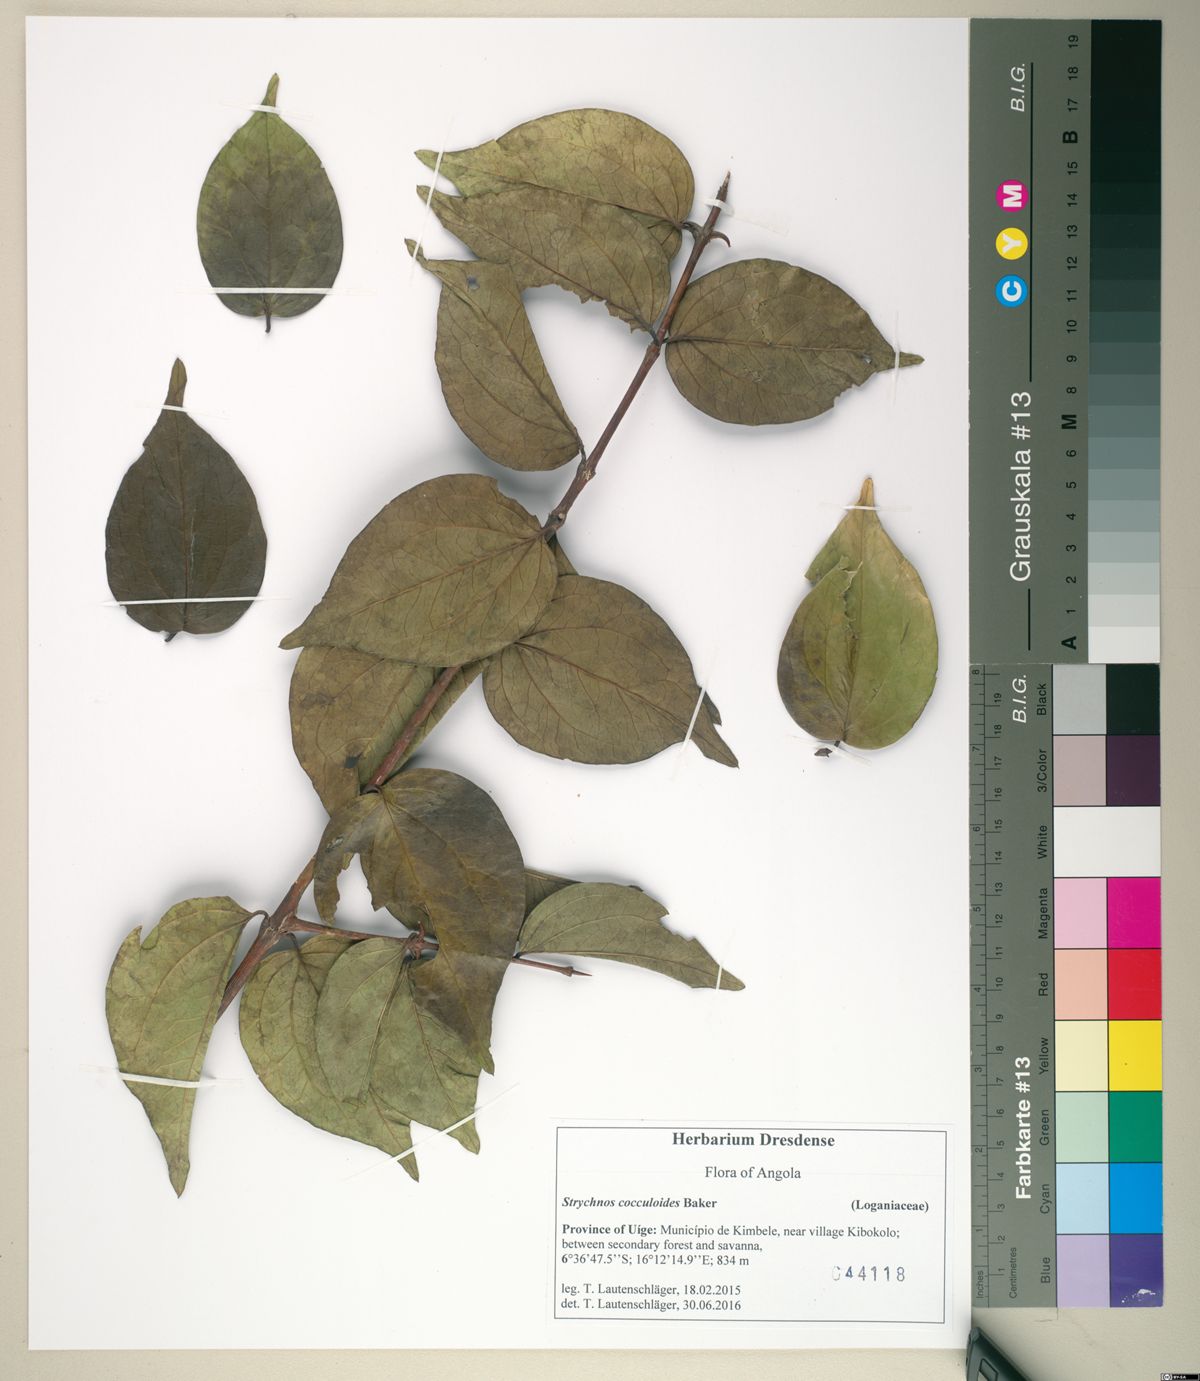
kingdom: Plantae
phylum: Tracheophyta
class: Magnoliopsida
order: Gentianales
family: Loganiaceae
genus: Strychnos
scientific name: Strychnos cocculoides
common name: Corky-bark monkey-orange
